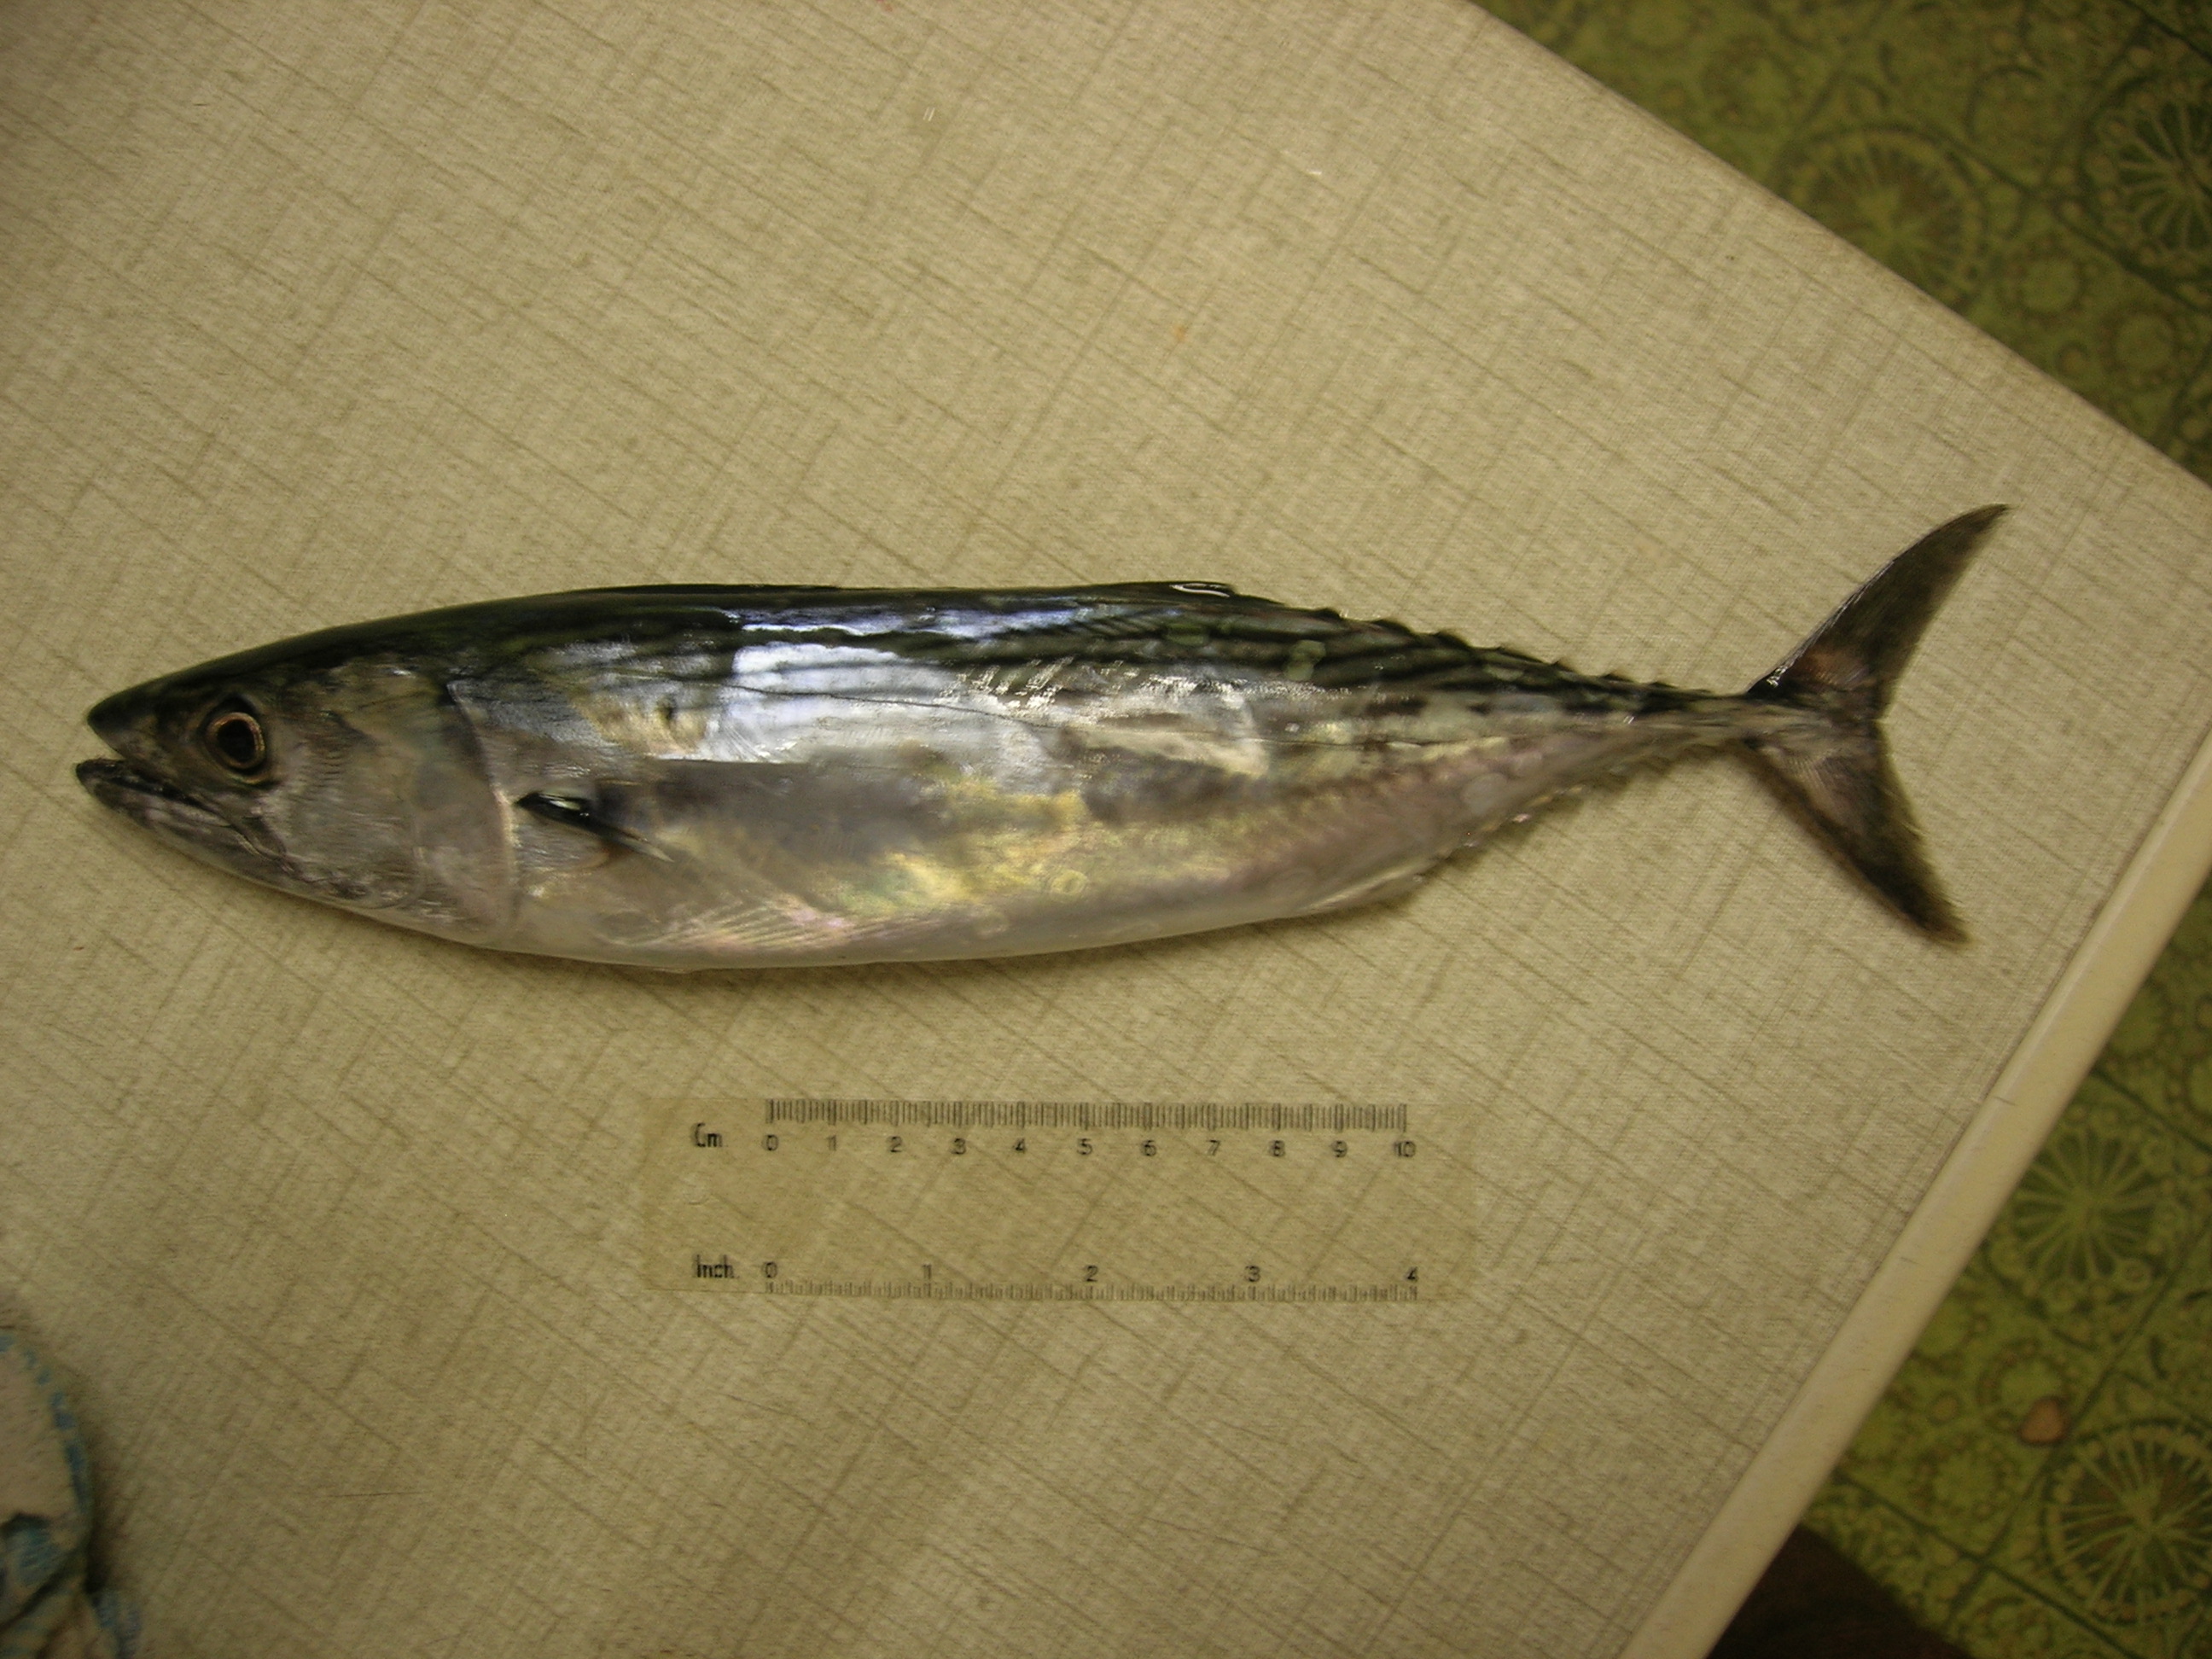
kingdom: Animalia
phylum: Chordata
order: Perciformes
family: Scombridae
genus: Sarda
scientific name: Sarda orientalis
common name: Striped bonito
